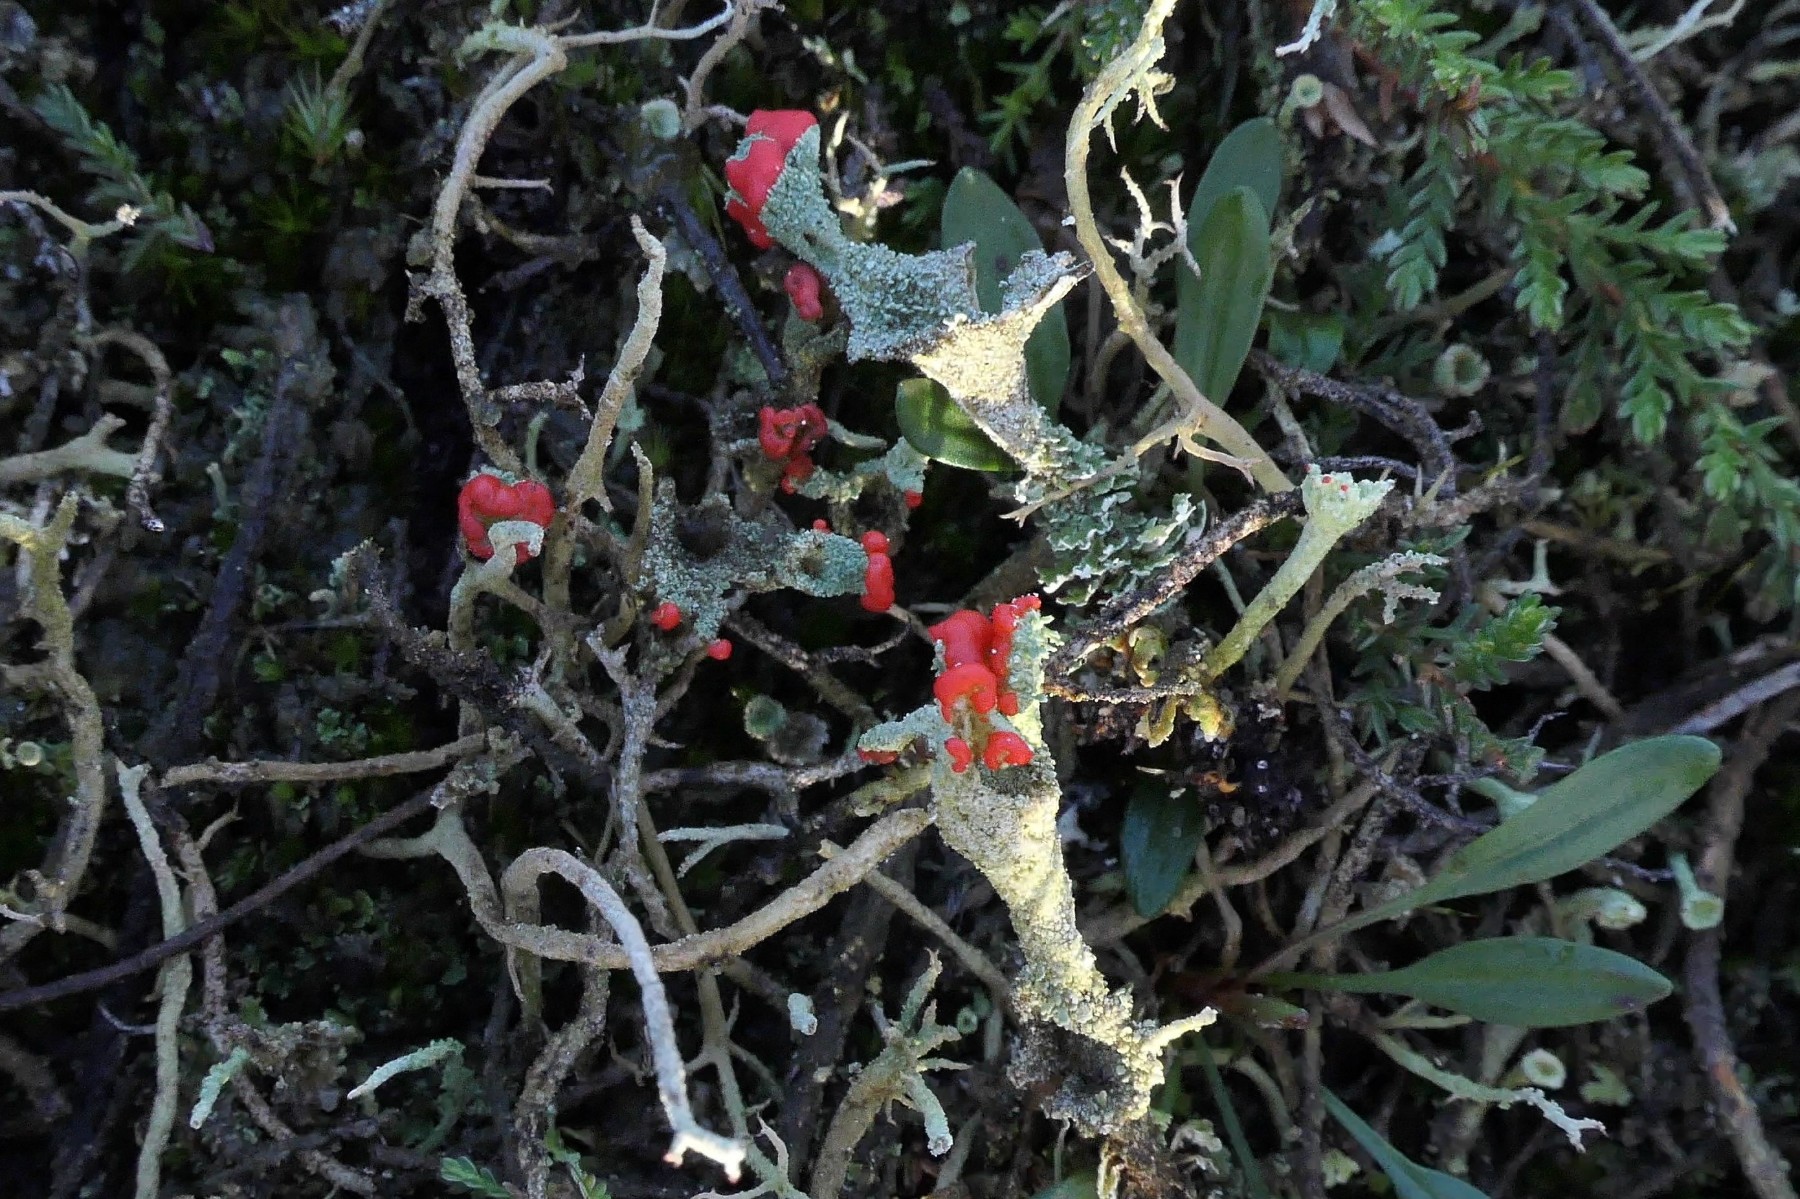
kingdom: Fungi
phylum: Ascomycota
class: Lecanoromycetes
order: Lecanorales
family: Cladoniaceae
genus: Cladonia
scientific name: Cladonia diversa
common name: rød bægerlav
